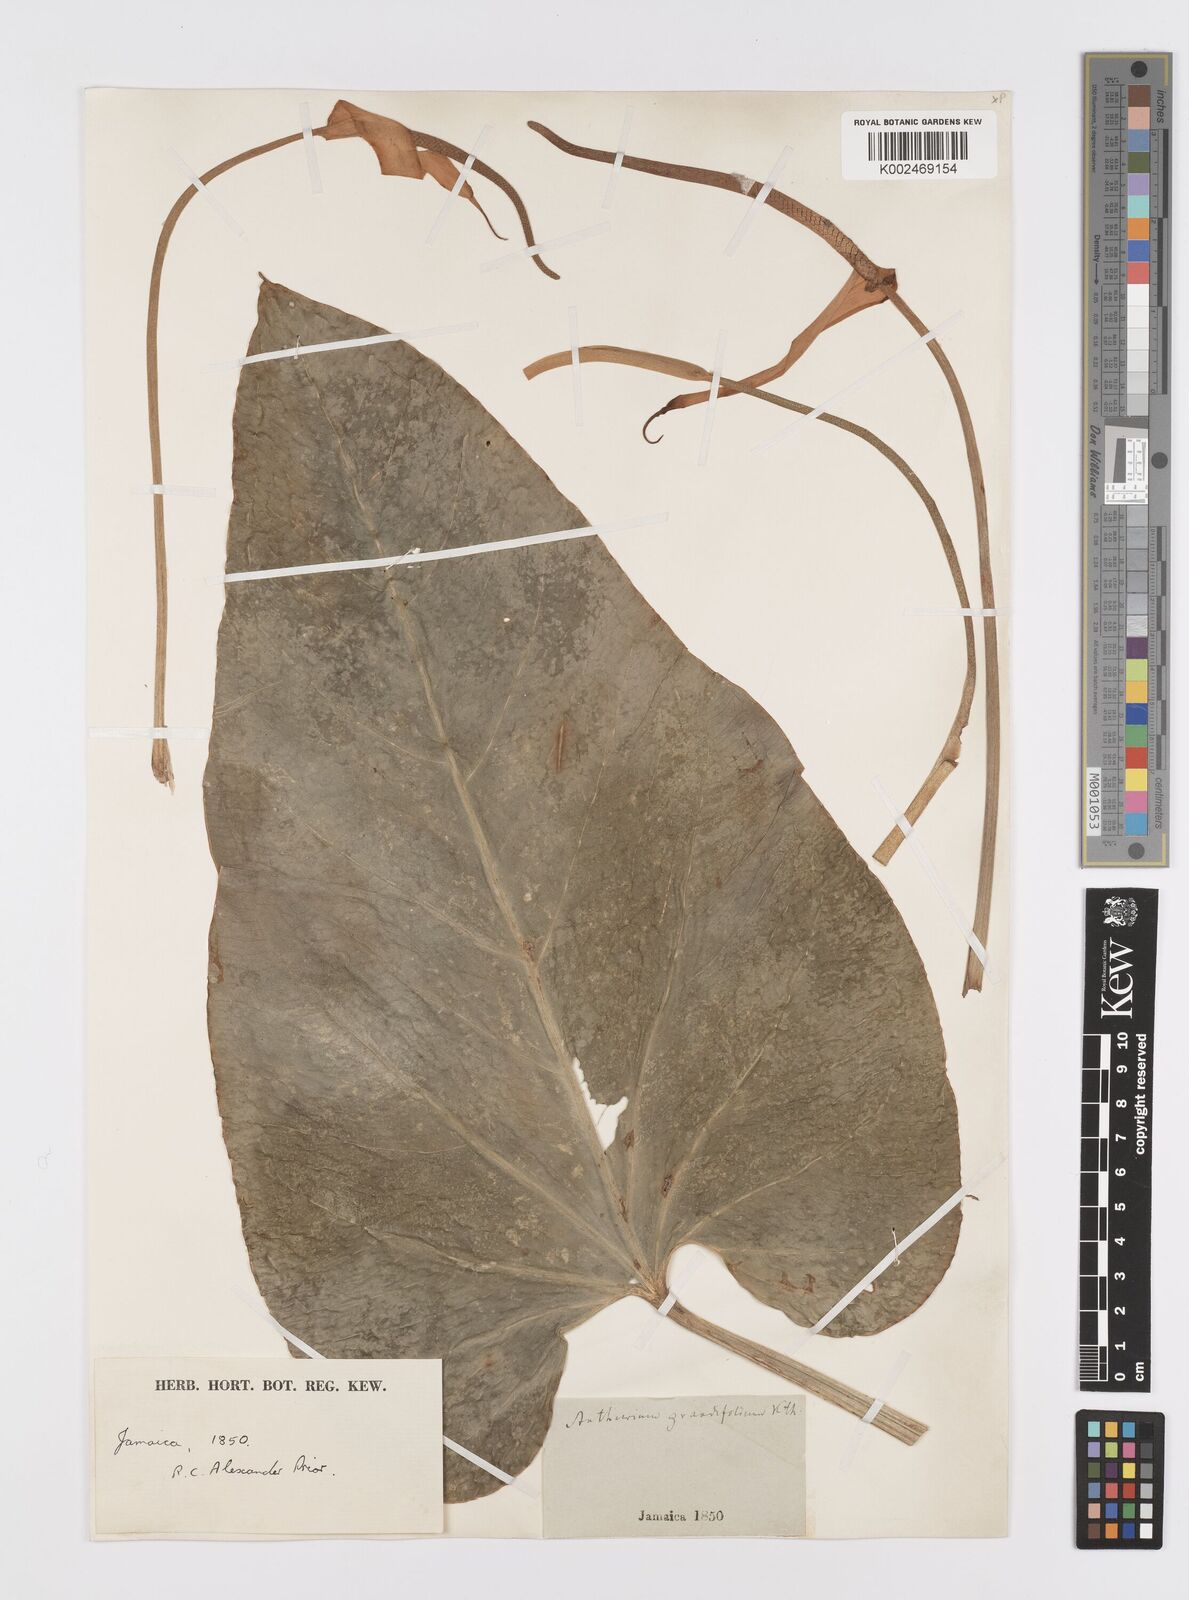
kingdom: Plantae
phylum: Tracheophyta
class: Liliopsida
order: Alismatales
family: Araceae
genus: Anthurium
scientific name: Anthurium grandifolium
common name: Monkey tail
